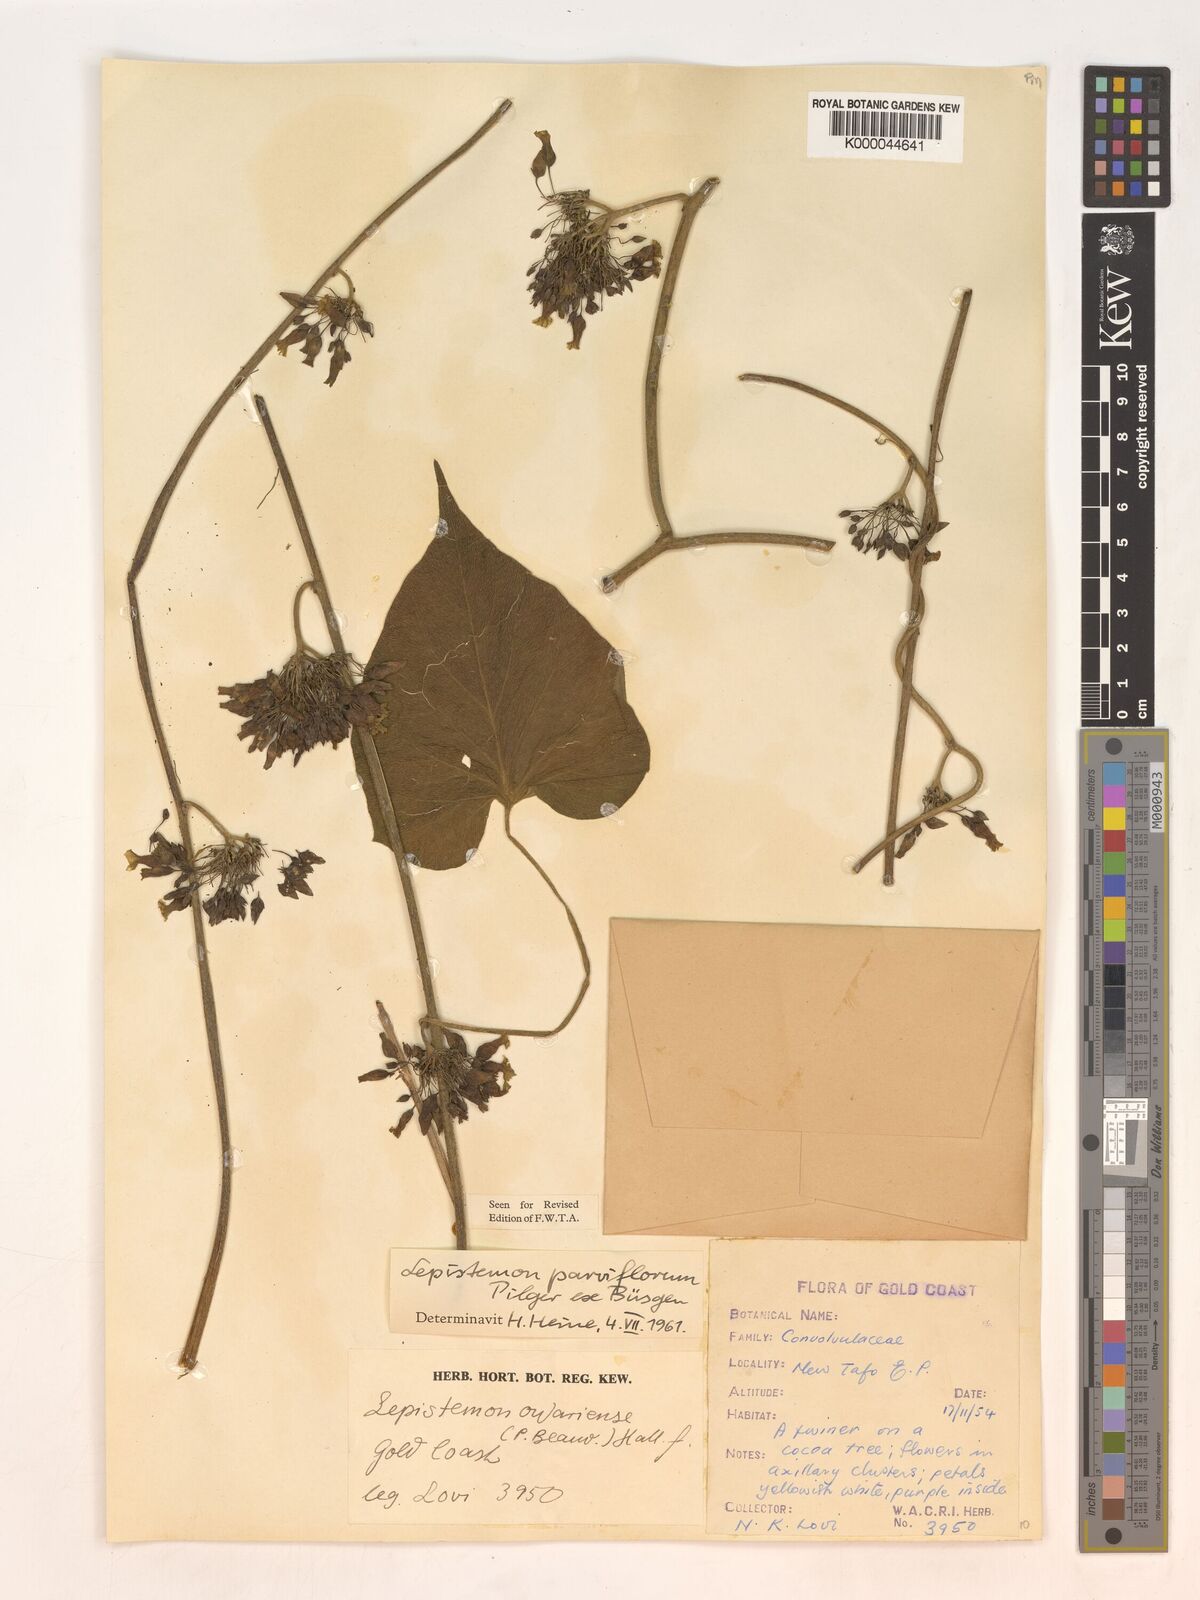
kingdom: Plantae
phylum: Tracheophyta
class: Magnoliopsida
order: Solanales
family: Convolvulaceae
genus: Lepistemon
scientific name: Lepistemon
